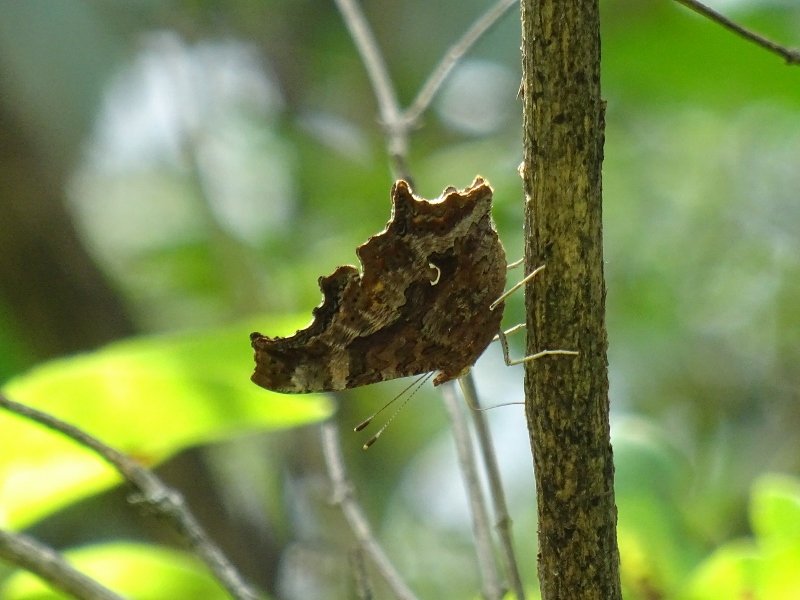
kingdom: Animalia
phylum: Arthropoda
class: Insecta
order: Lepidoptera
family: Nymphalidae
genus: Polygonia
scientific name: Polygonia comma
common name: Eastern Comma
